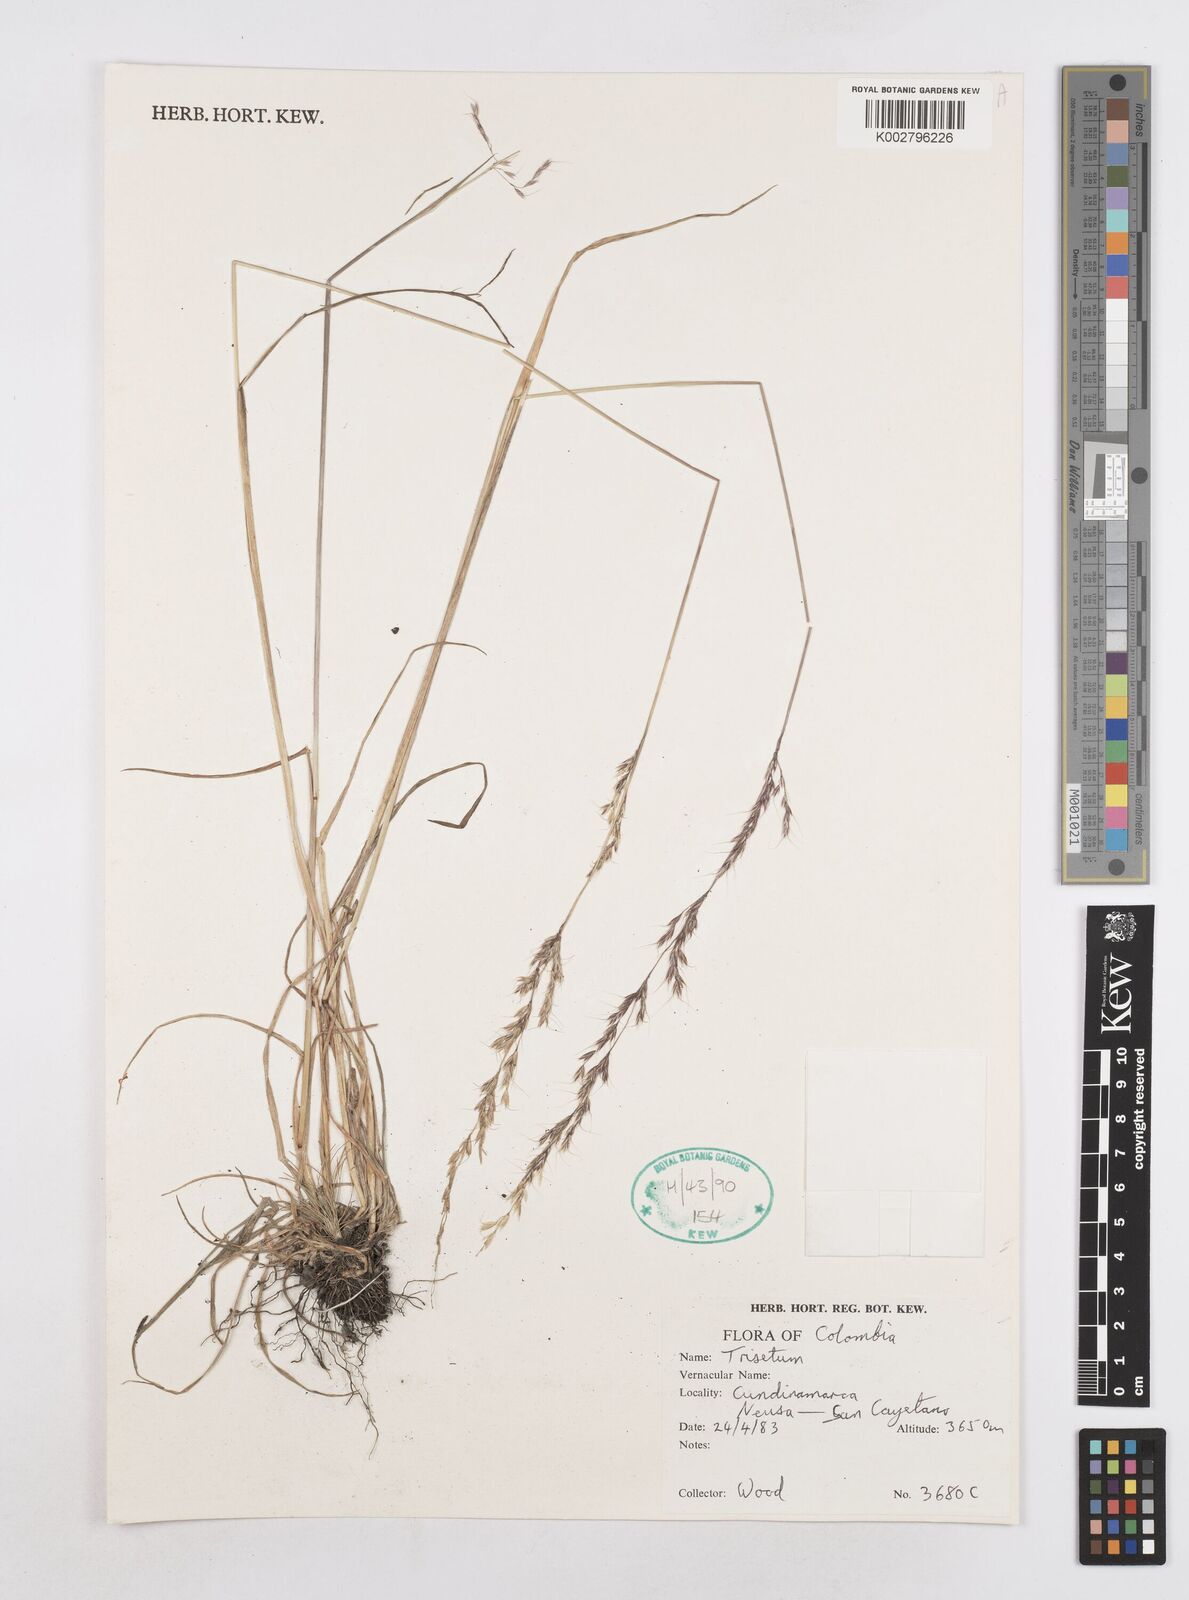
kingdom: Plantae
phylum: Tracheophyta
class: Liliopsida
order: Poales
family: Poaceae
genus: Helictotrichon
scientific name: Helictotrichon
